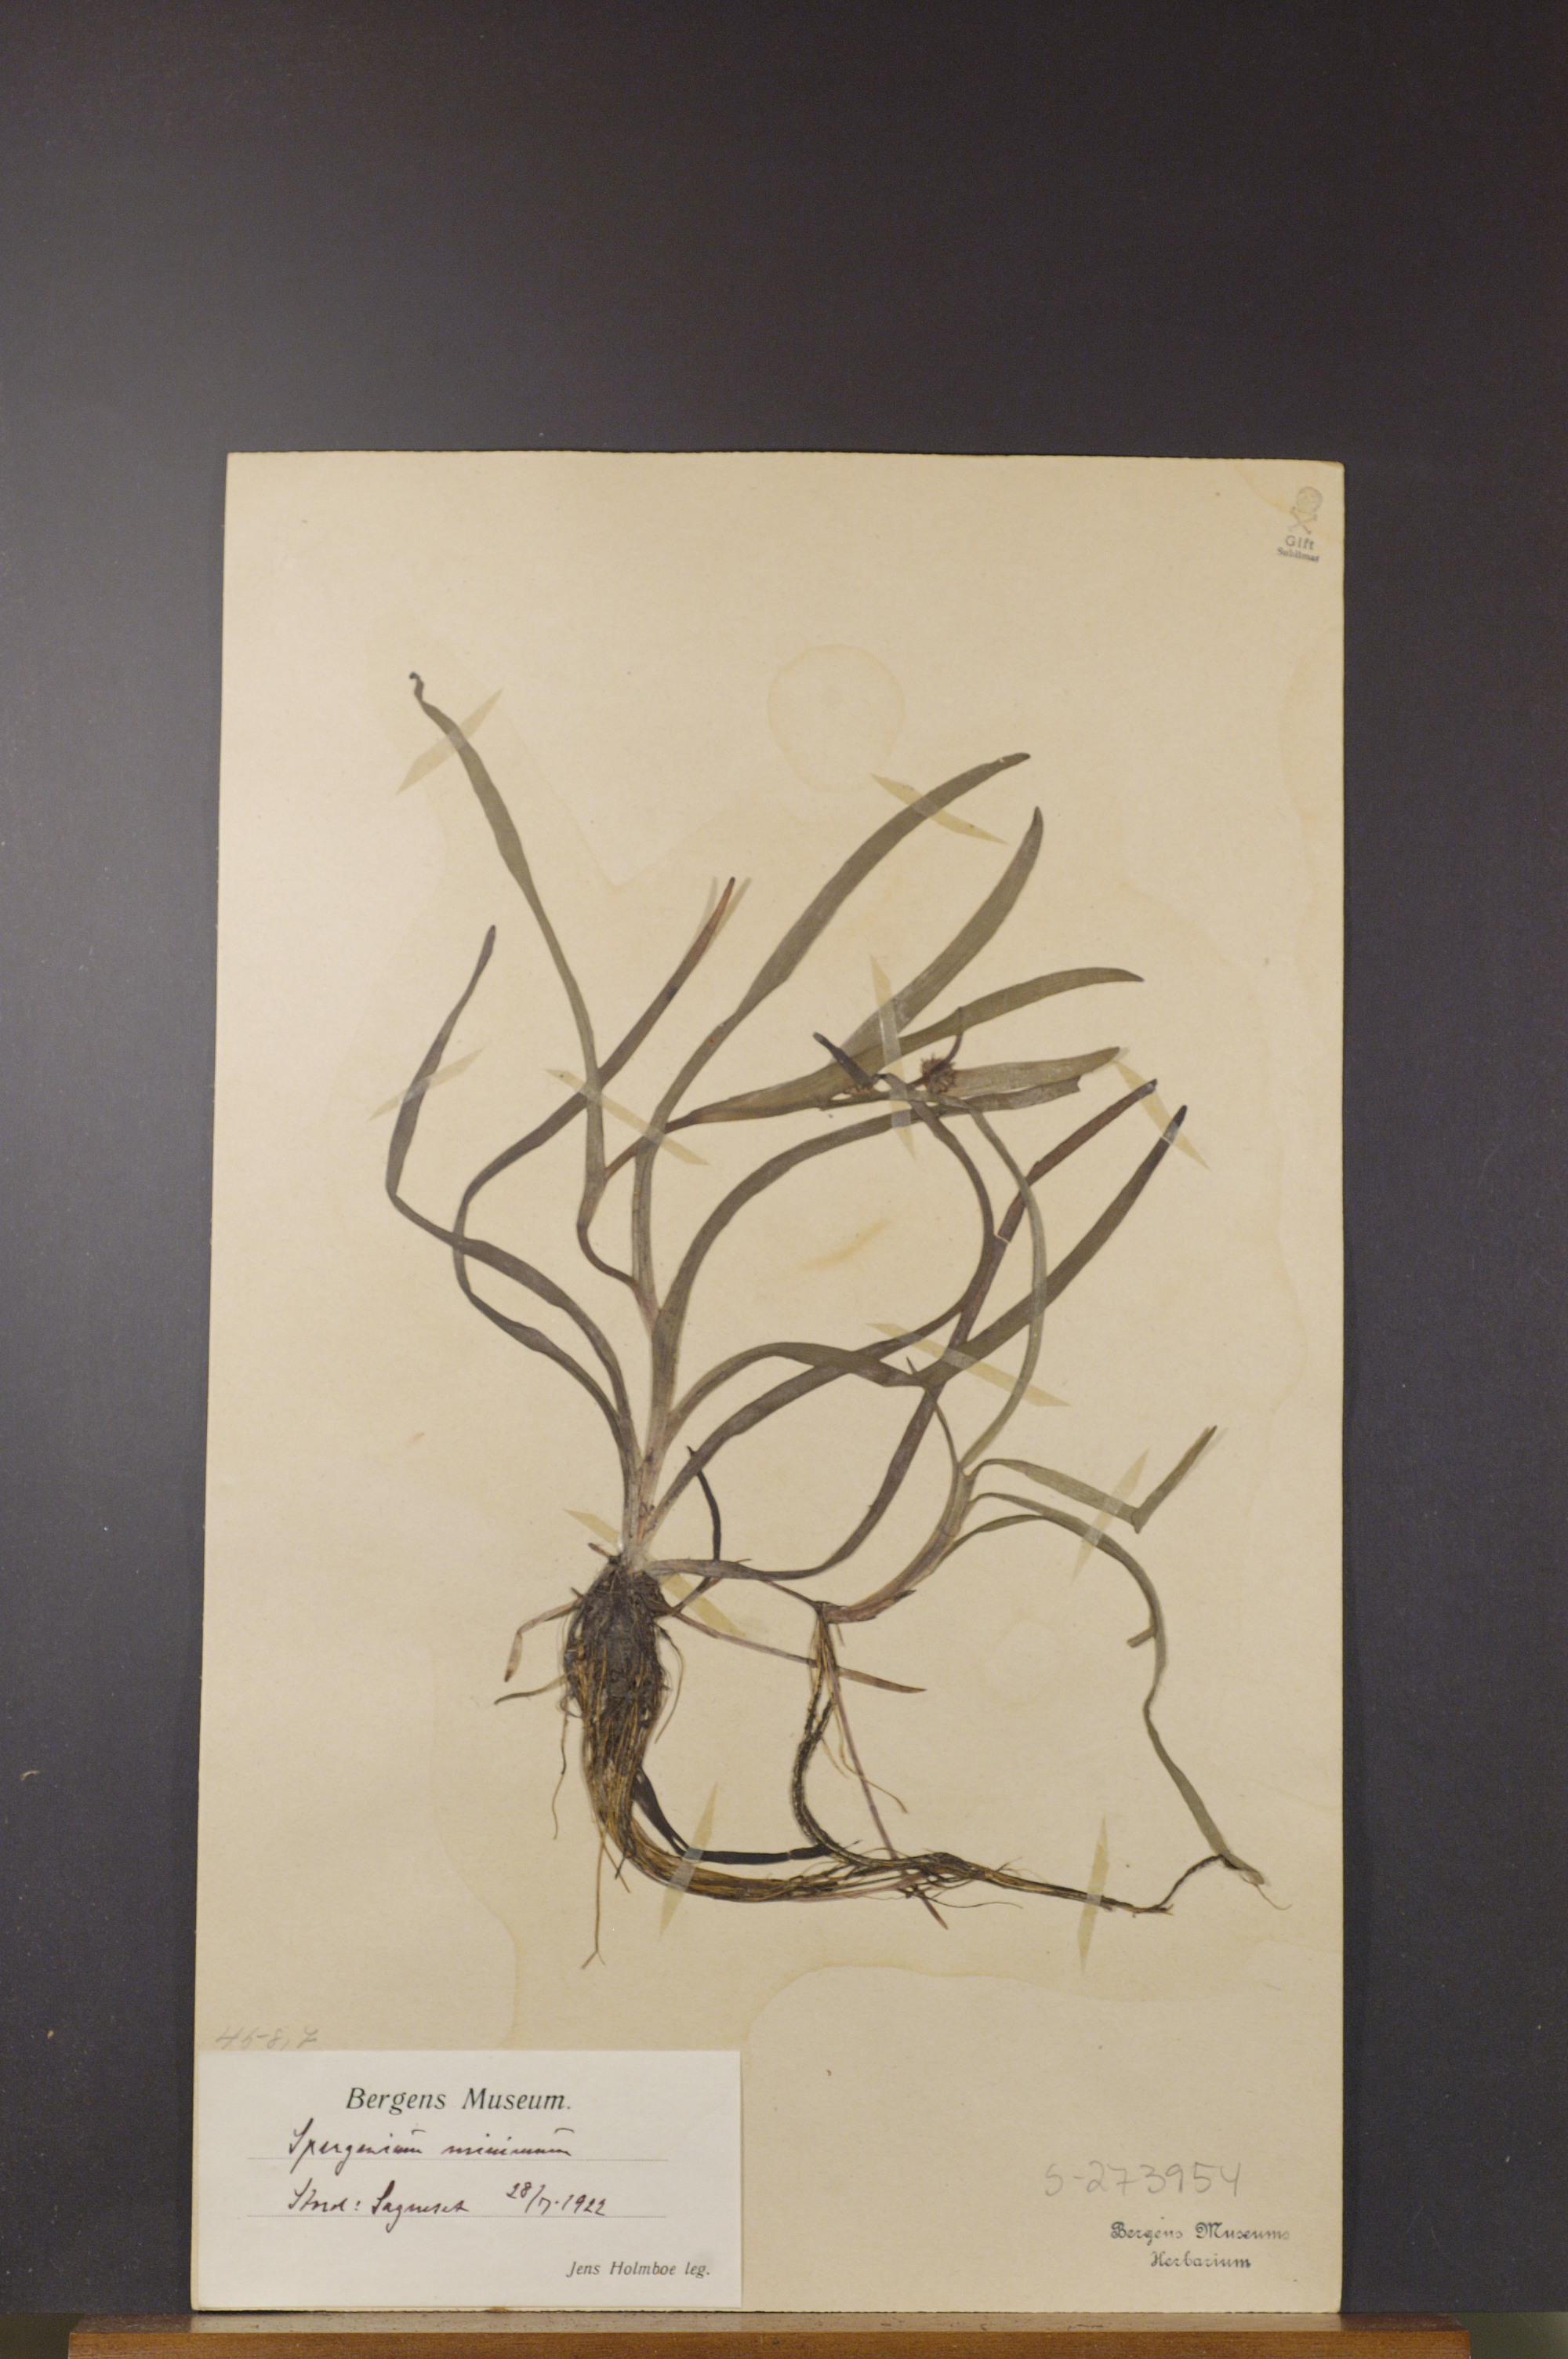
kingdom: Plantae
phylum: Tracheophyta
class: Liliopsida
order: Poales
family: Typhaceae
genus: Sparganium
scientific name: Sparganium natans
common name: Least bur-reed
